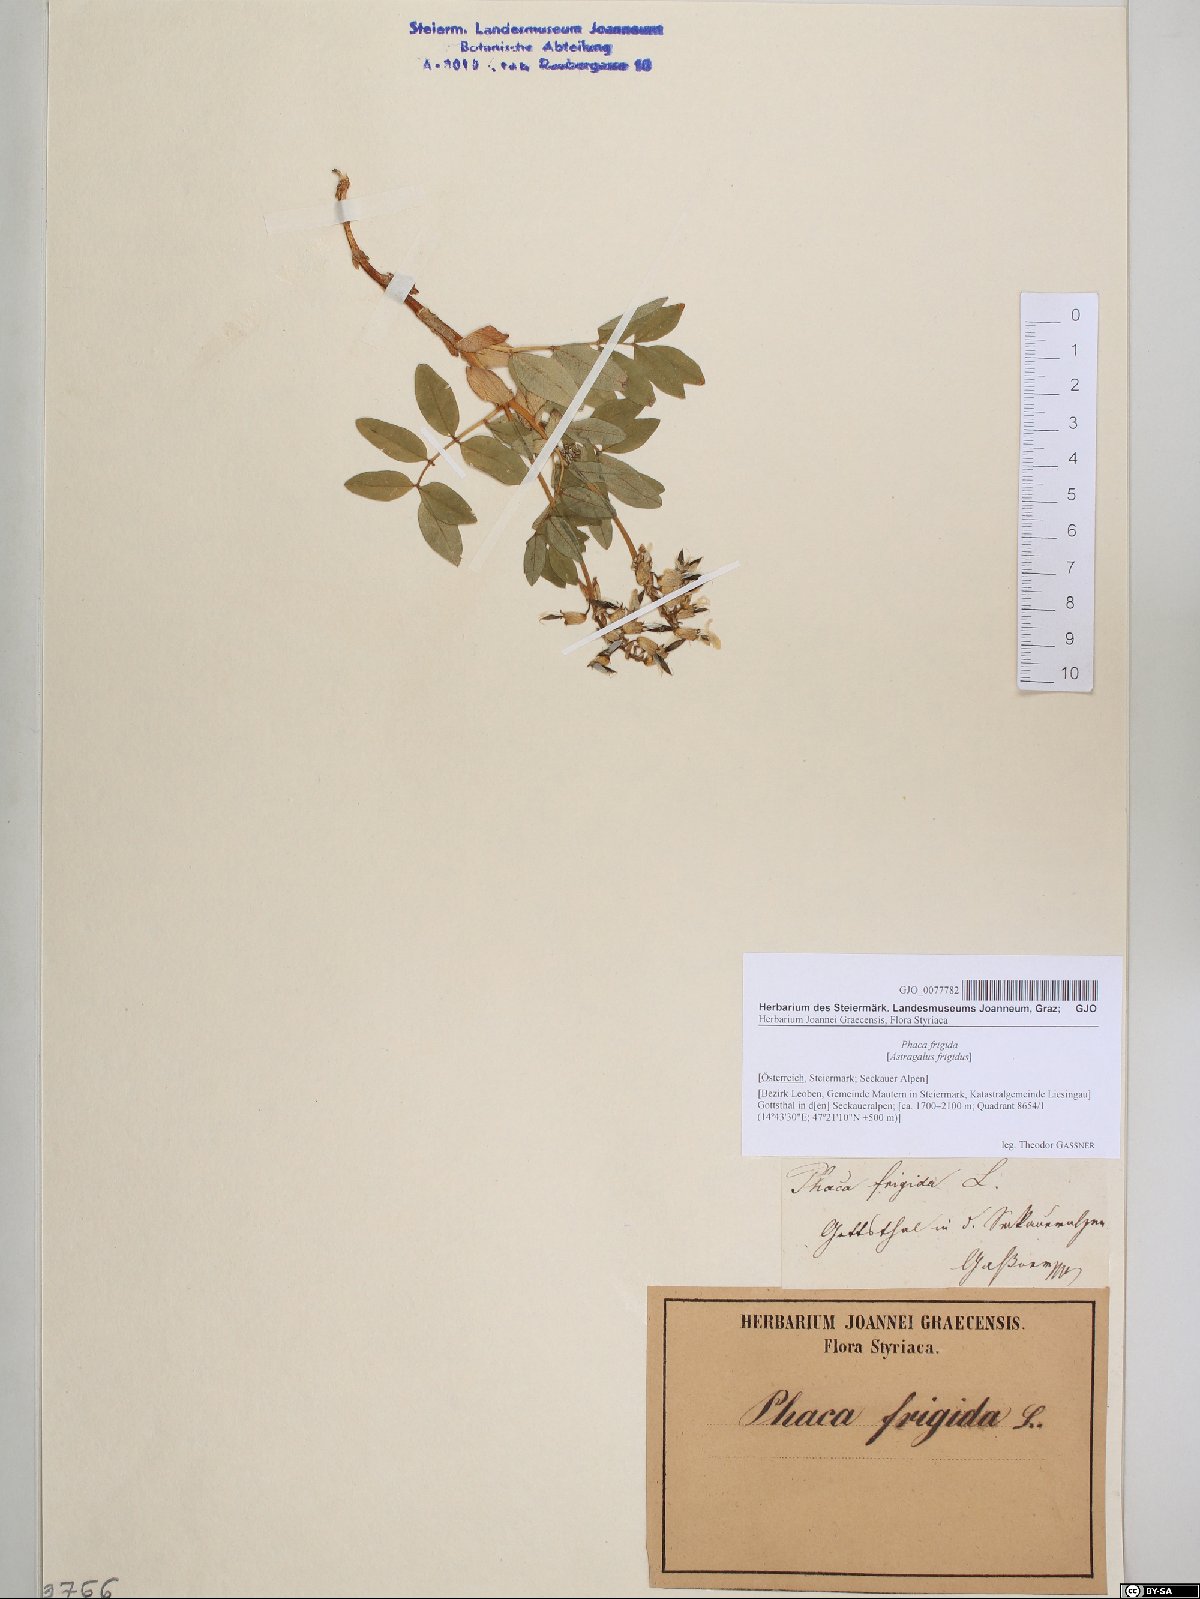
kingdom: Plantae
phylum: Tracheophyta
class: Magnoliopsida
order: Fabales
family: Fabaceae
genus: Astragalus
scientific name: Astragalus frigidus
